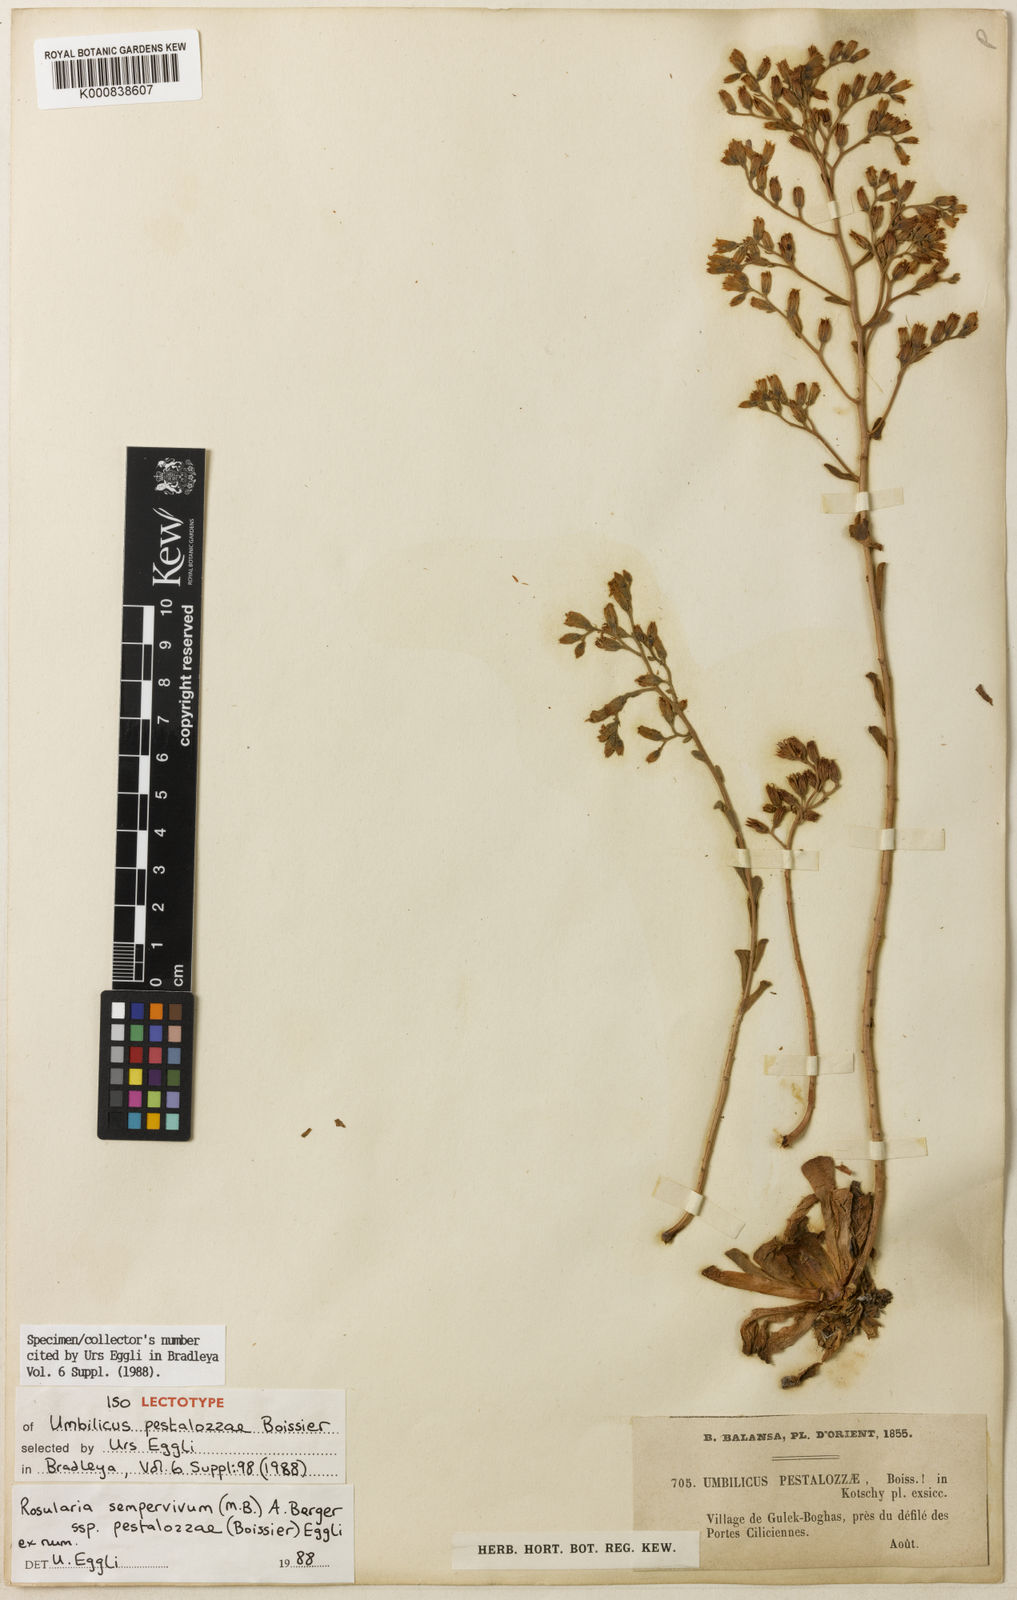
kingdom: Plantae
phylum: Tracheophyta
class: Magnoliopsida
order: Saxifragales
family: Crassulaceae
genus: Rosularia
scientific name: Rosularia sempervivum
